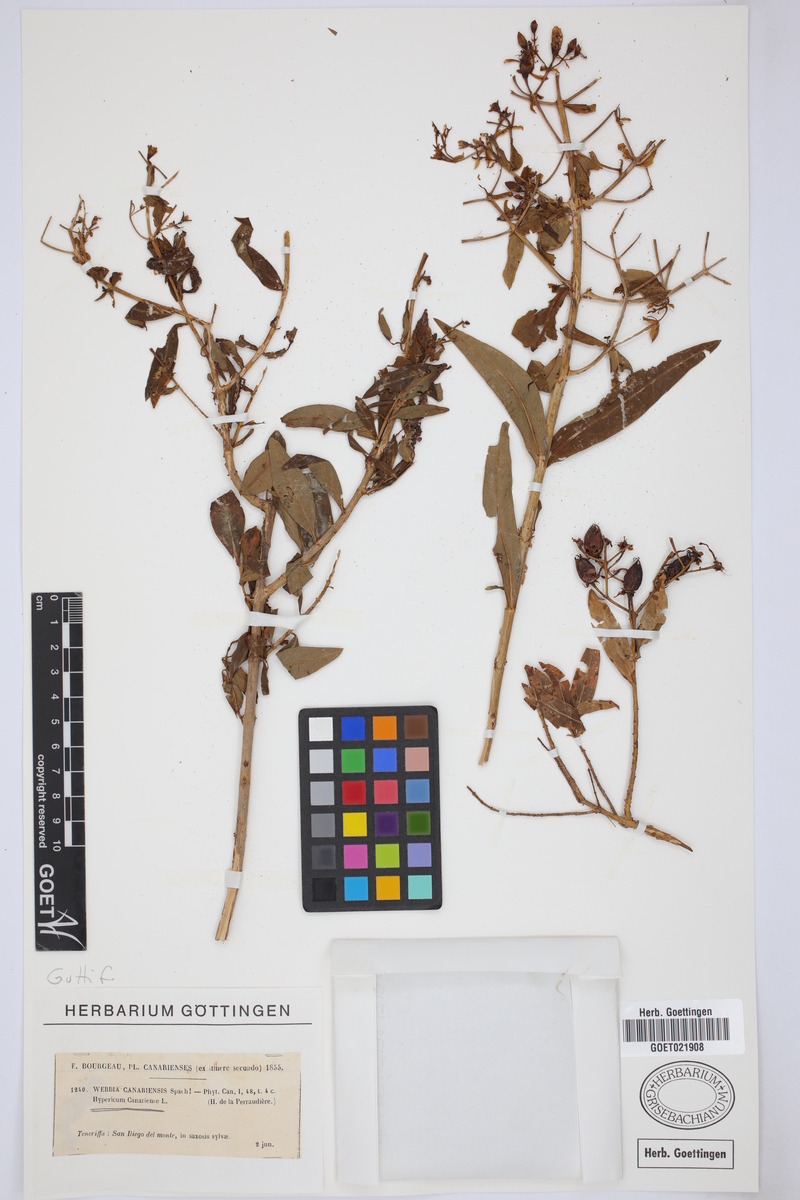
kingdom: Plantae
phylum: Tracheophyta
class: Magnoliopsida
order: Malpighiales
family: Hypericaceae
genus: Hypericum
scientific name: Hypericum canariense
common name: Canary island st. johnswort
